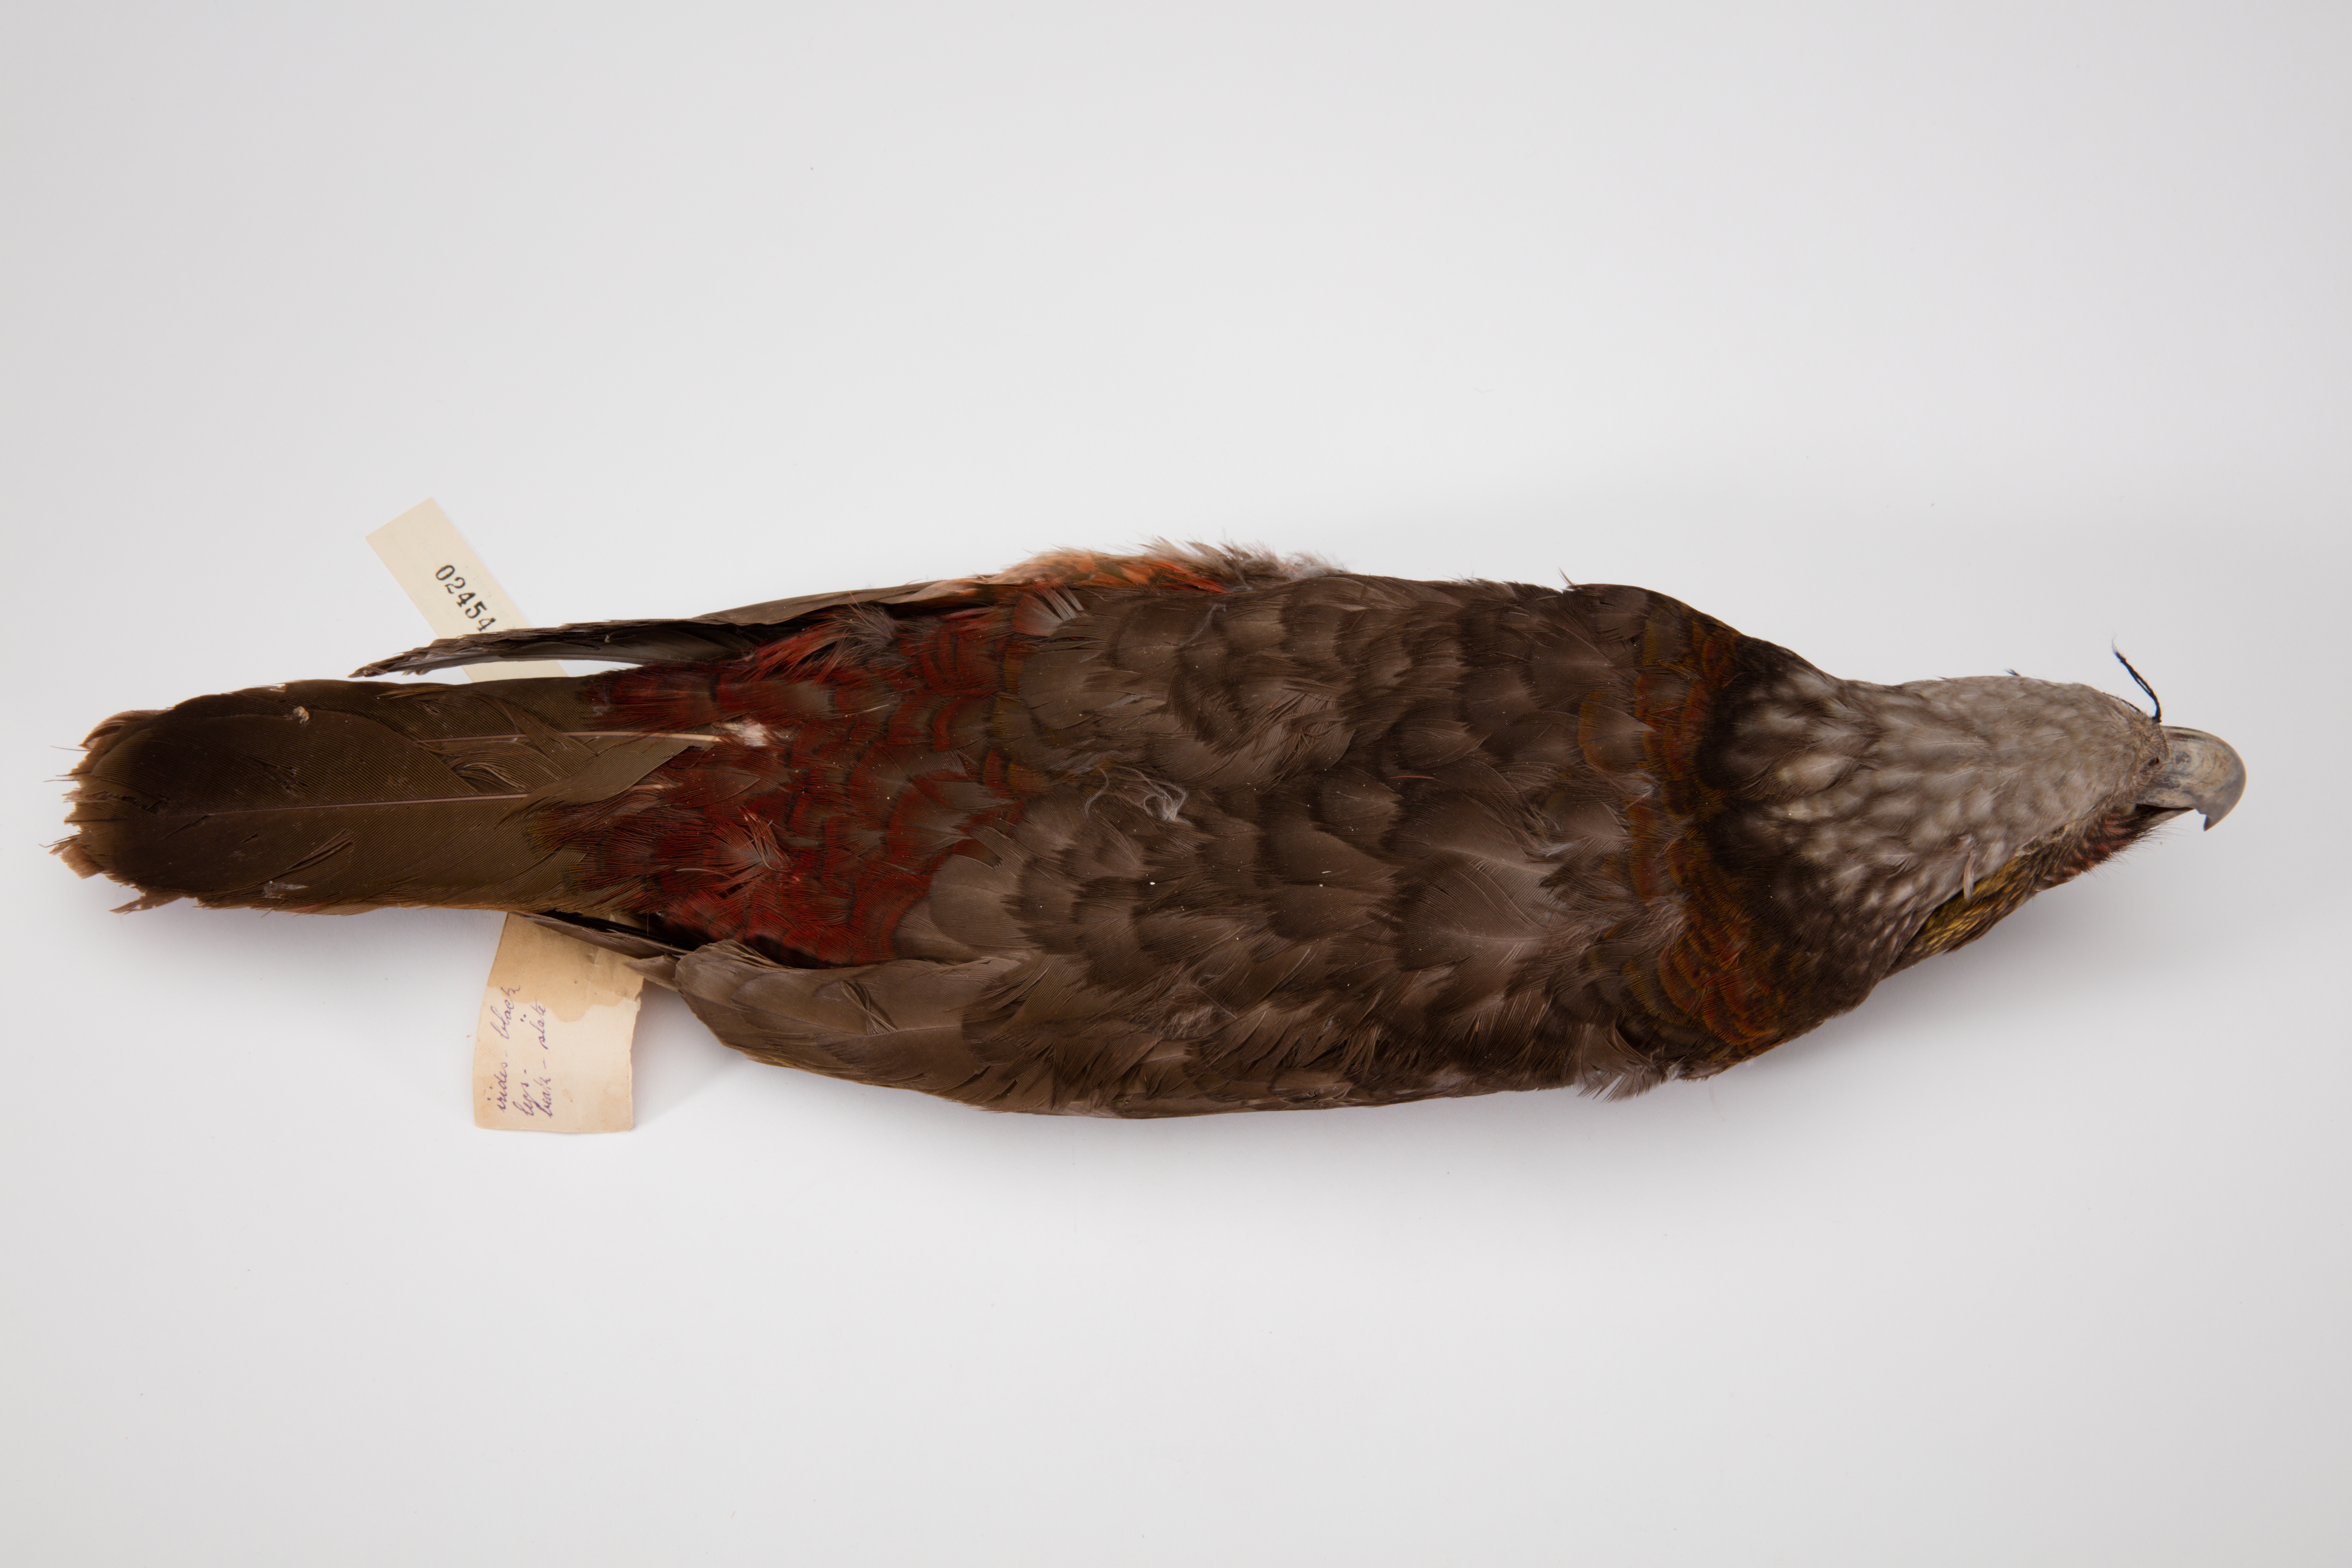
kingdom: Animalia
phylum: Chordata
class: Aves
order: Psittaciformes
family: Psittacidae
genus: Nestor
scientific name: Nestor meridionalis
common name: New zealand kaka
